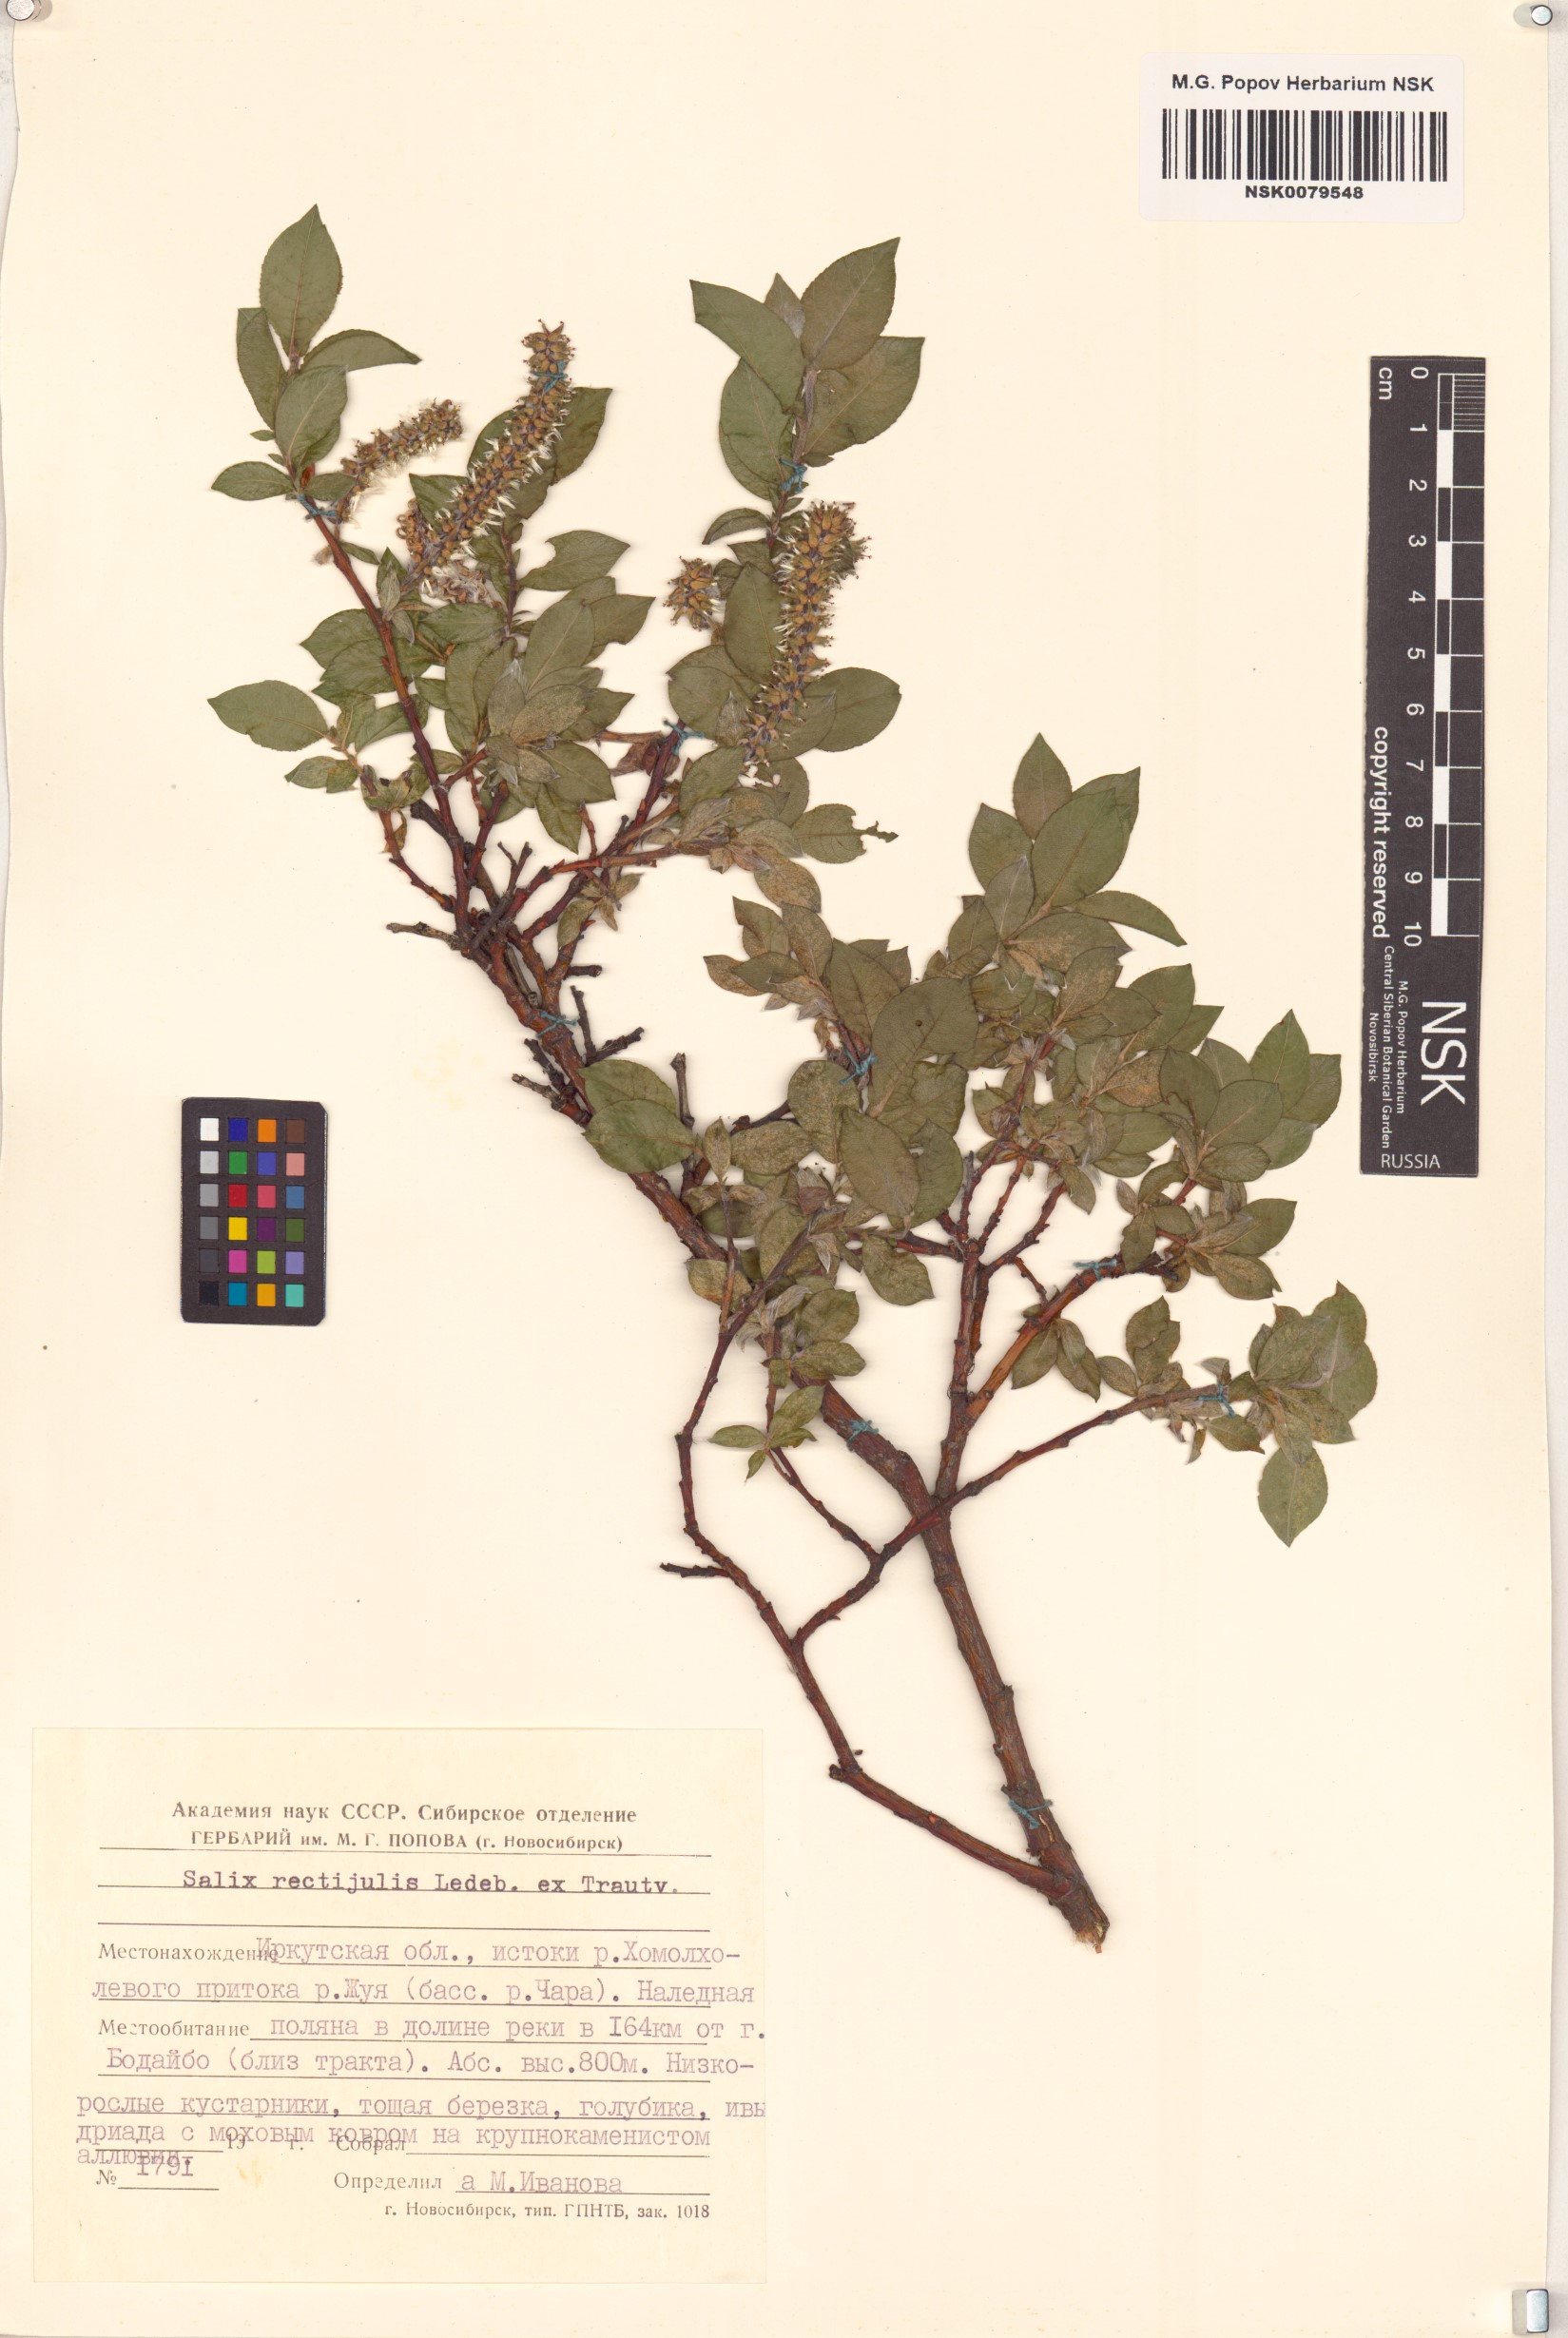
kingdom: Plantae
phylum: Tracheophyta
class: Magnoliopsida
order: Malpighiales
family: Salicaceae
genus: Salix
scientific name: Salix rectijulis
